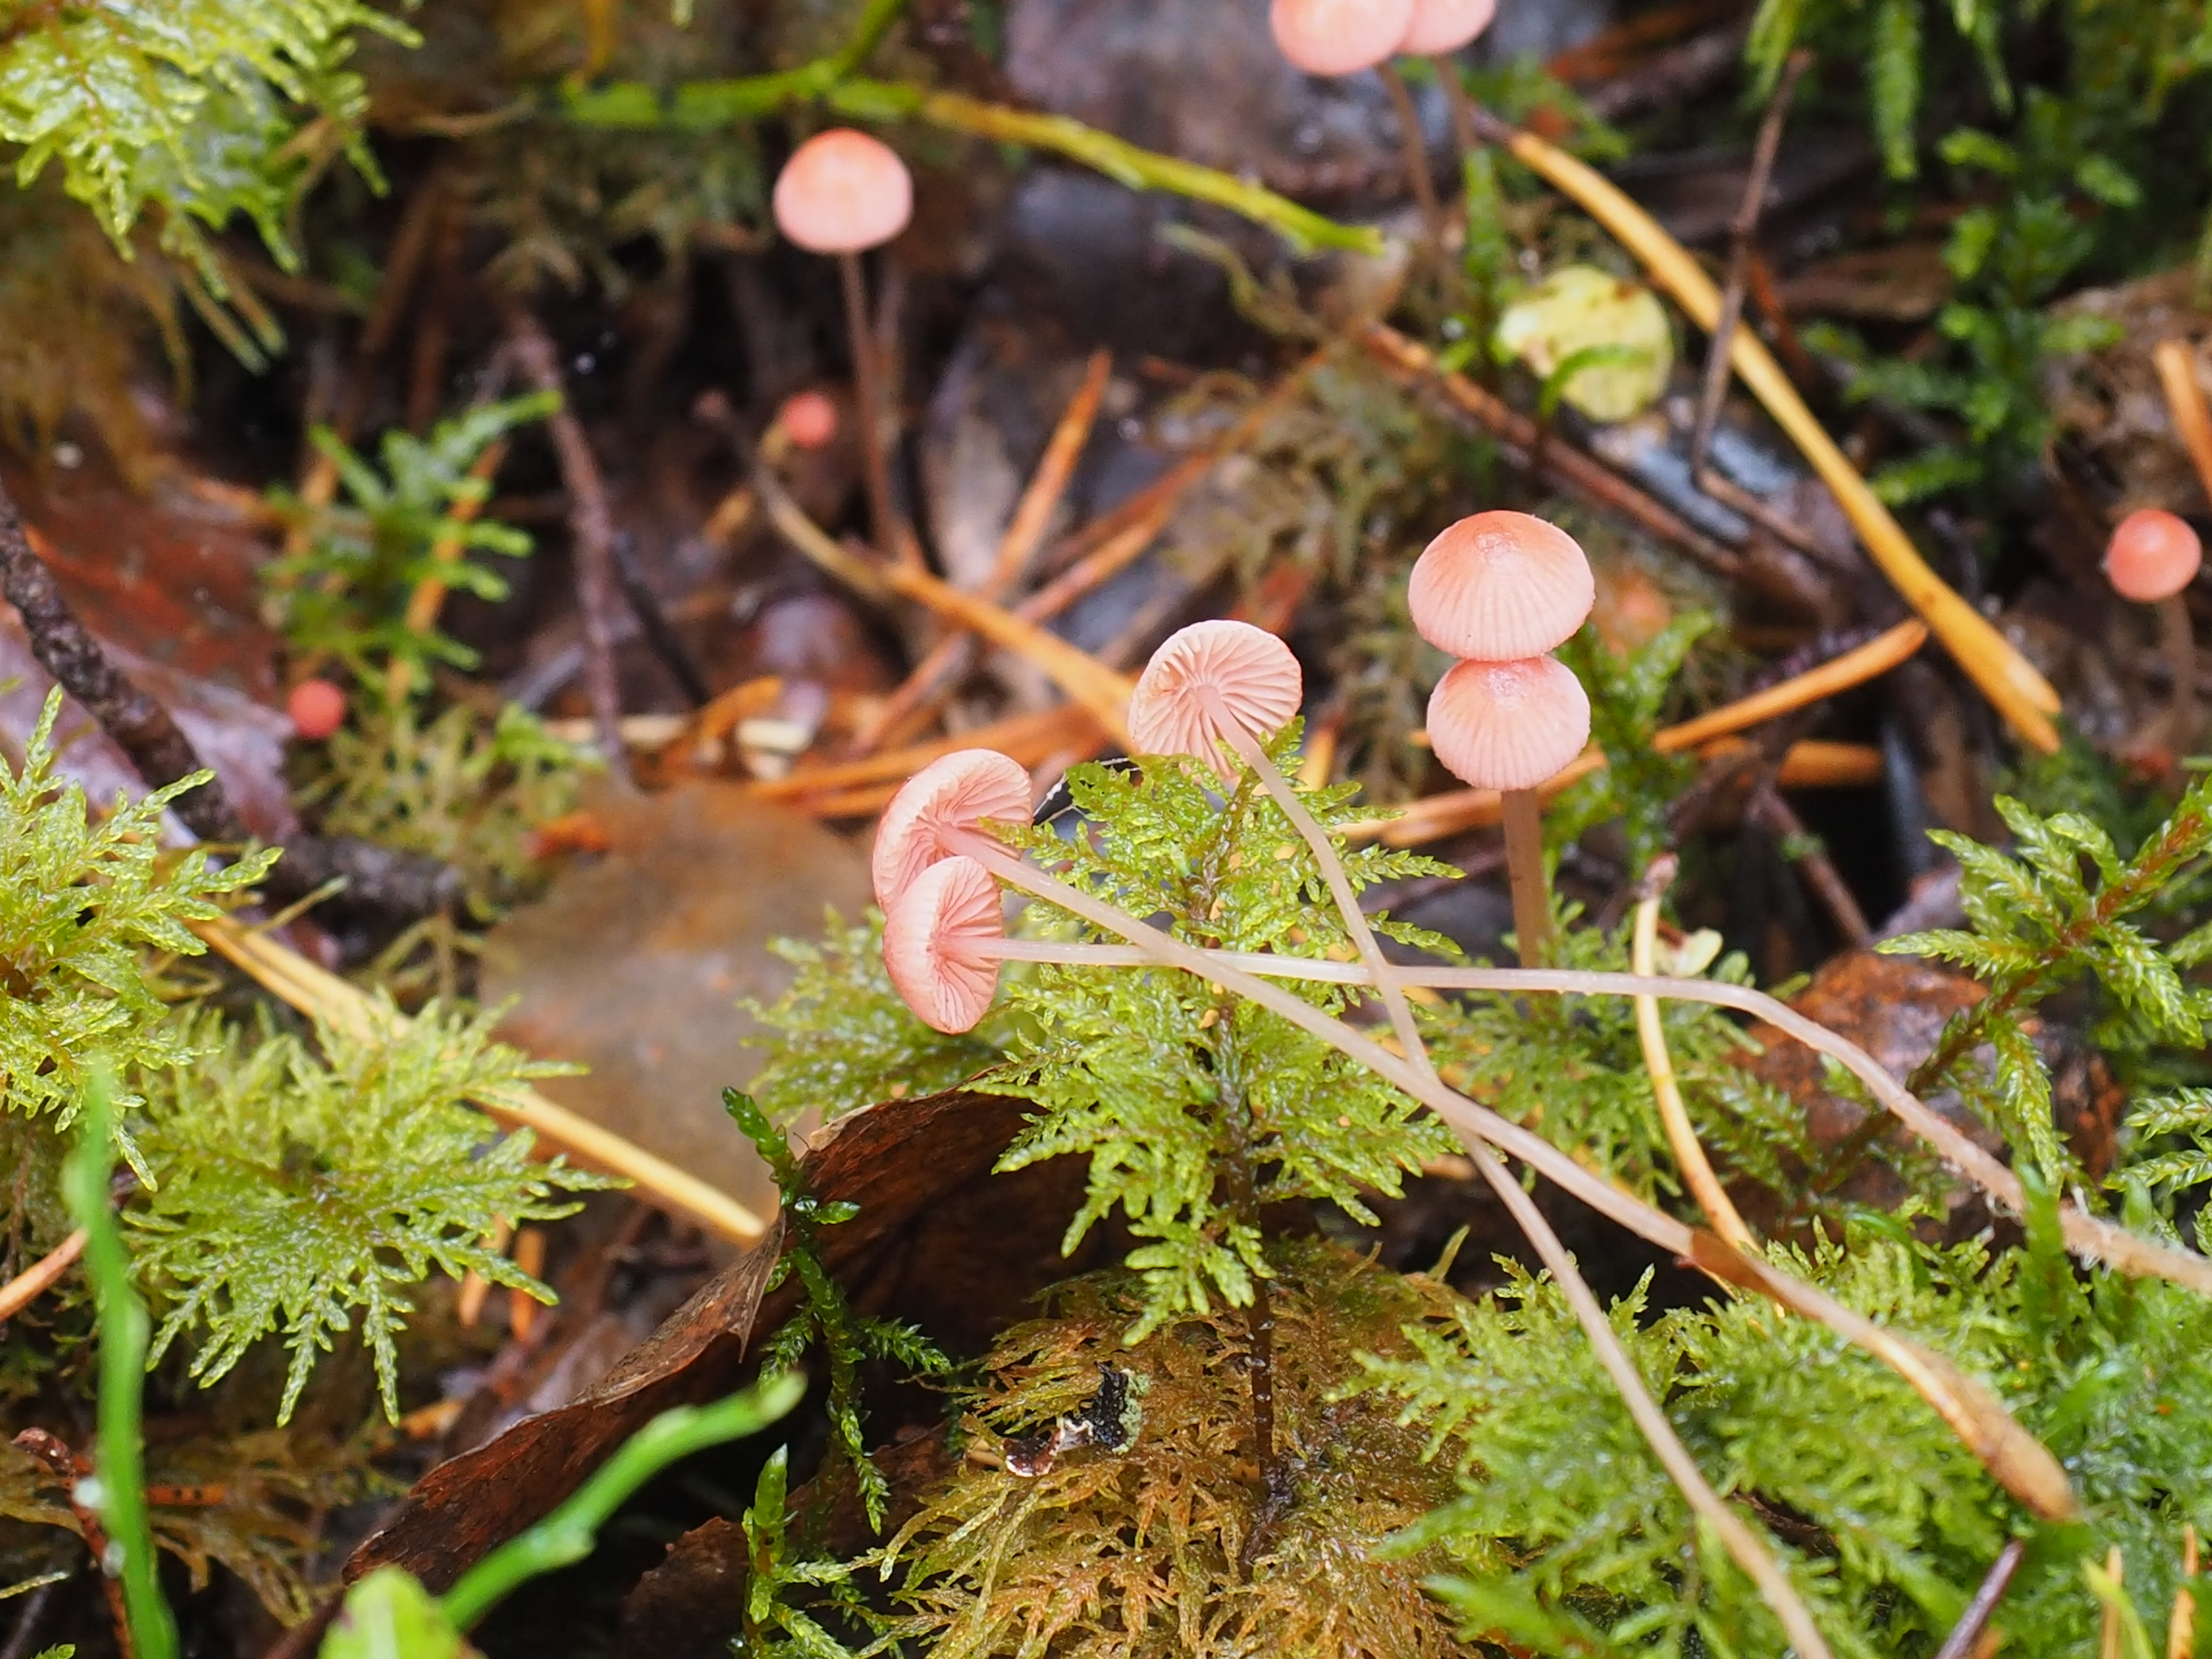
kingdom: Fungi
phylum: Basidiomycota
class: Agaricomycetes
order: Agaricales
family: Mycenaceae
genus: Mycena
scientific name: Mycena rosella
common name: Pink bonnet
